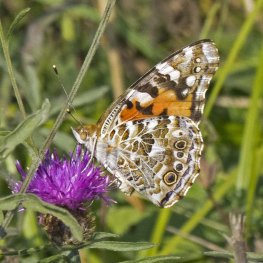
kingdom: Animalia
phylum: Arthropoda
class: Insecta
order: Lepidoptera
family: Nymphalidae
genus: Vanessa
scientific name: Vanessa cardui
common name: Painted Lady
